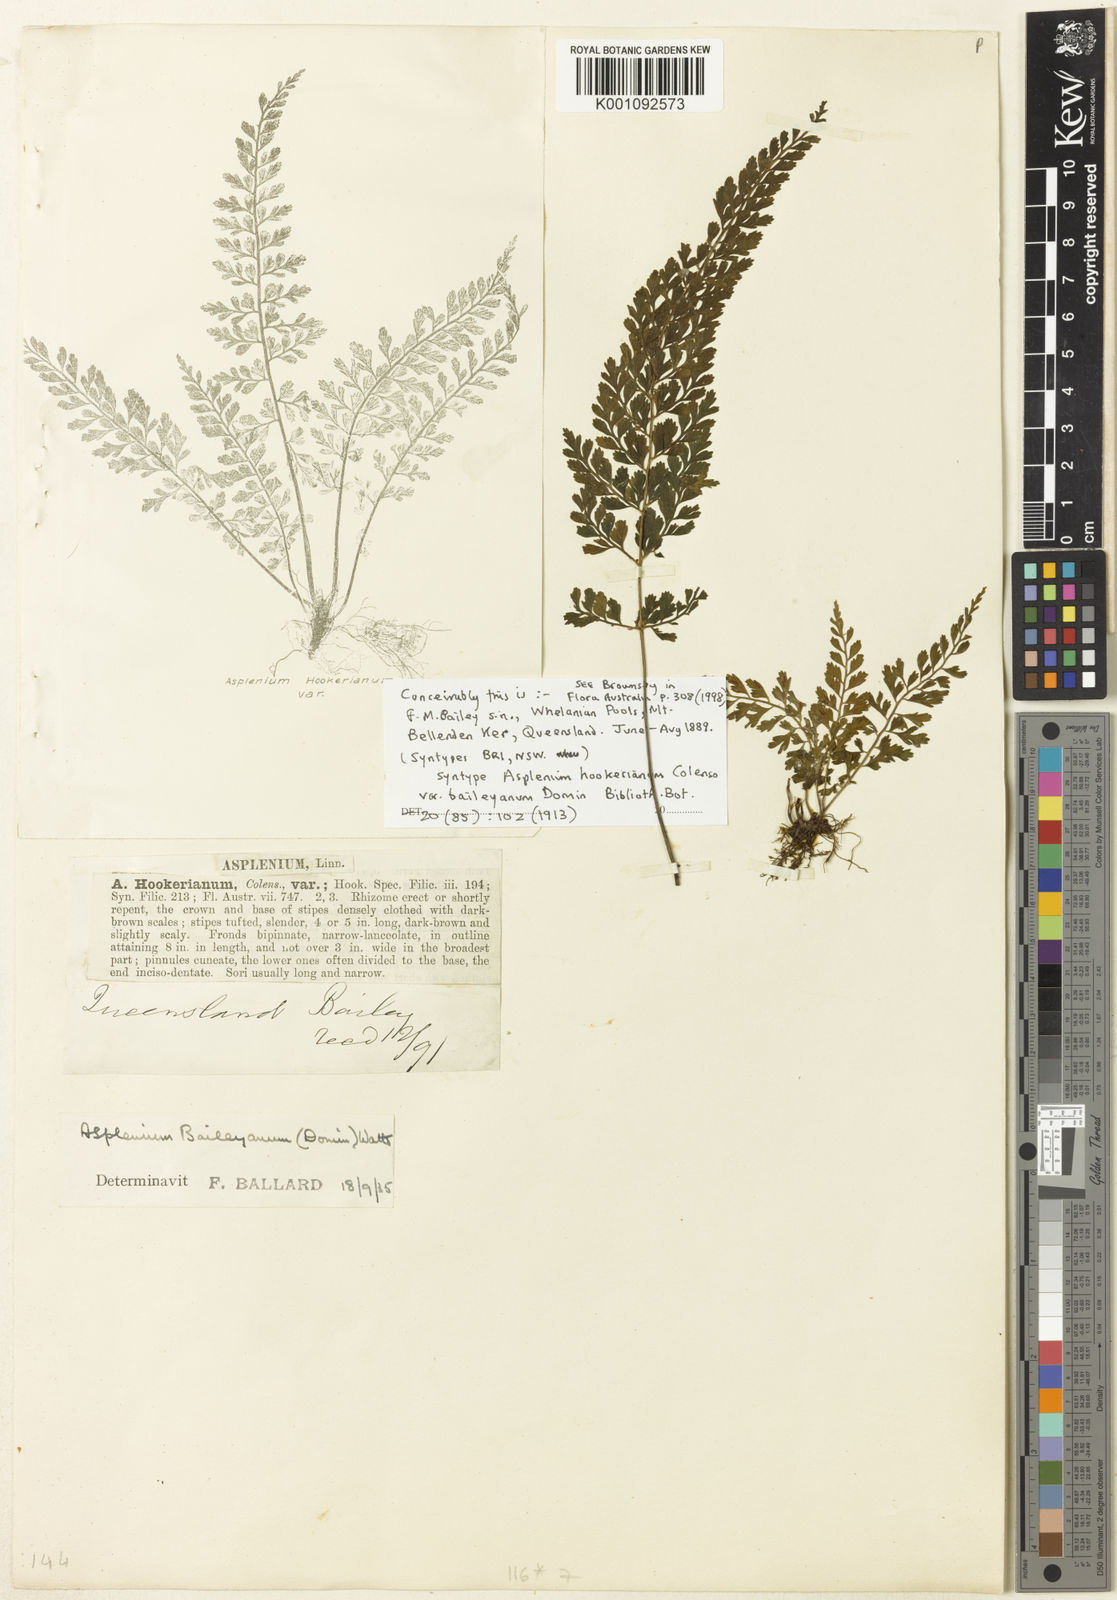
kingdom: Plantae
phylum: Tracheophyta
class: Polypodiopsida
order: Polypodiales
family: Aspleniaceae
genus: Asplenium
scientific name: Asplenium baileyanum
